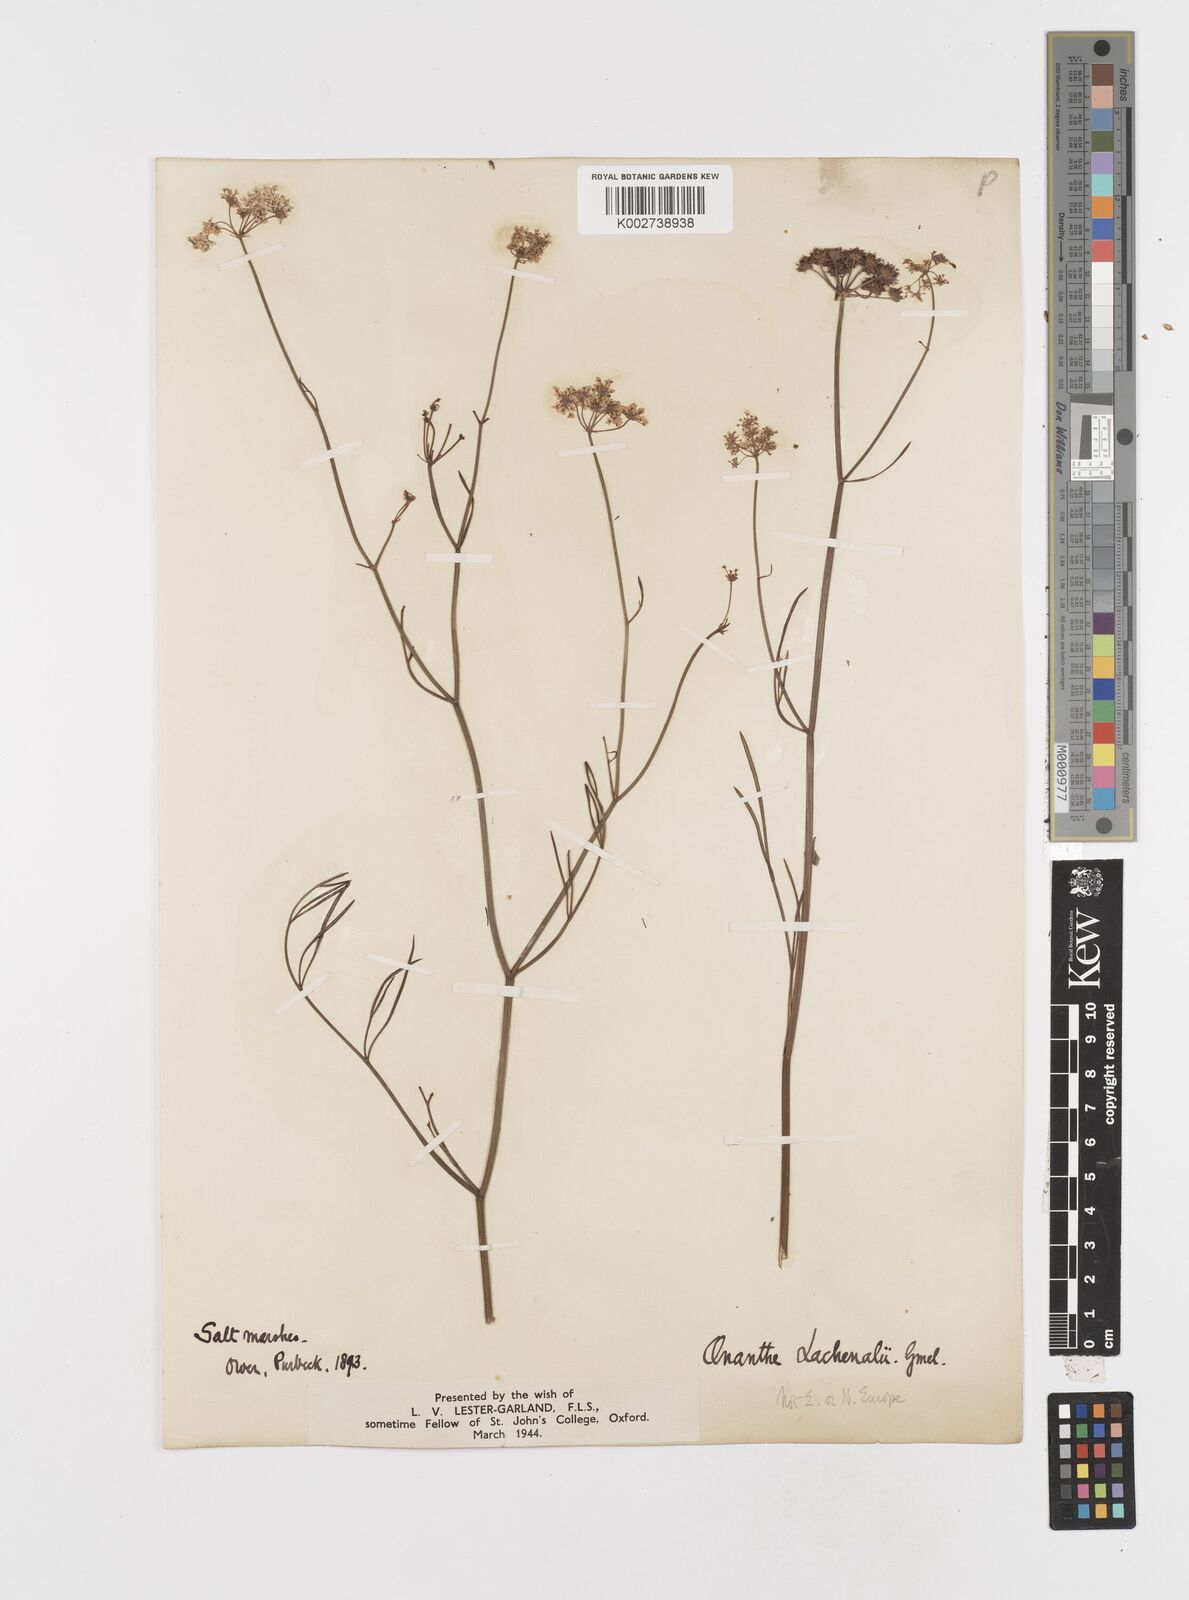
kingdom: Plantae
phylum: Tracheophyta
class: Magnoliopsida
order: Apiales
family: Apiaceae
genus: Oenanthe
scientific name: Oenanthe lachenalii
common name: Parsley water-dropwort
